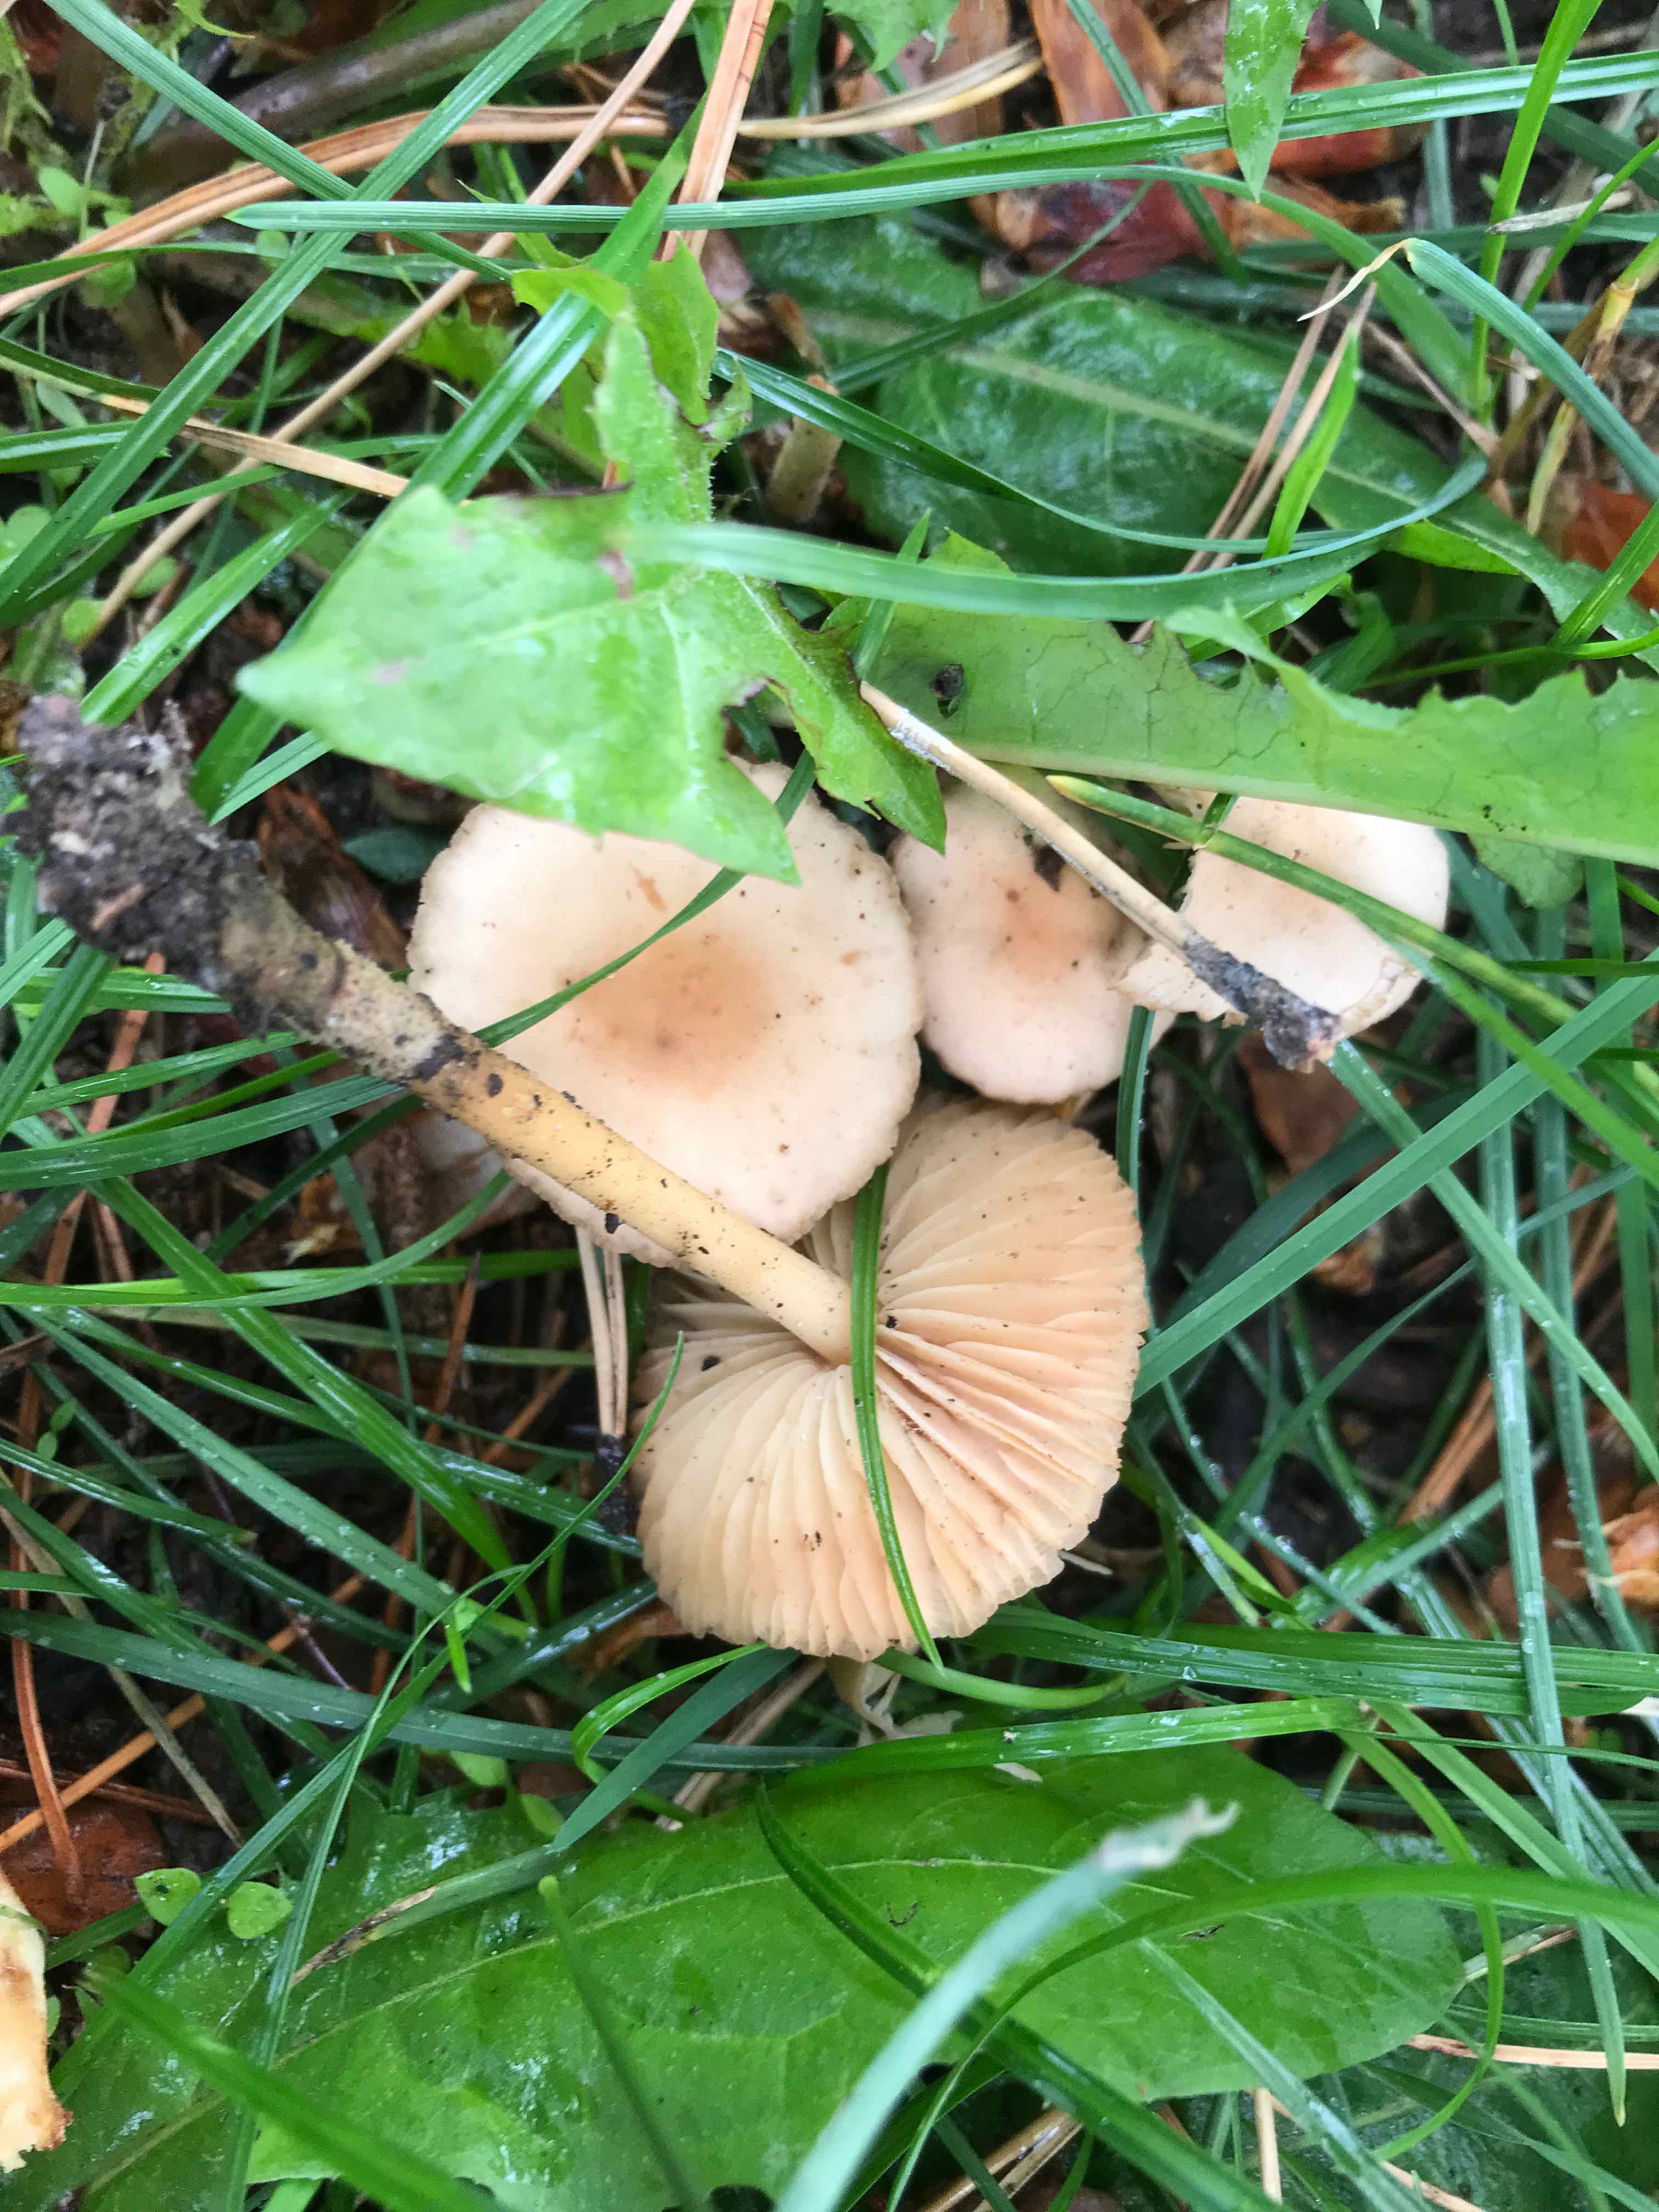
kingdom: Fungi
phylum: Basidiomycota
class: Agaricomycetes
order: Agaricales
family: Marasmiaceae
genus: Marasmius
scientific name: Marasmius oreades
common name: elledans-bruskhat
